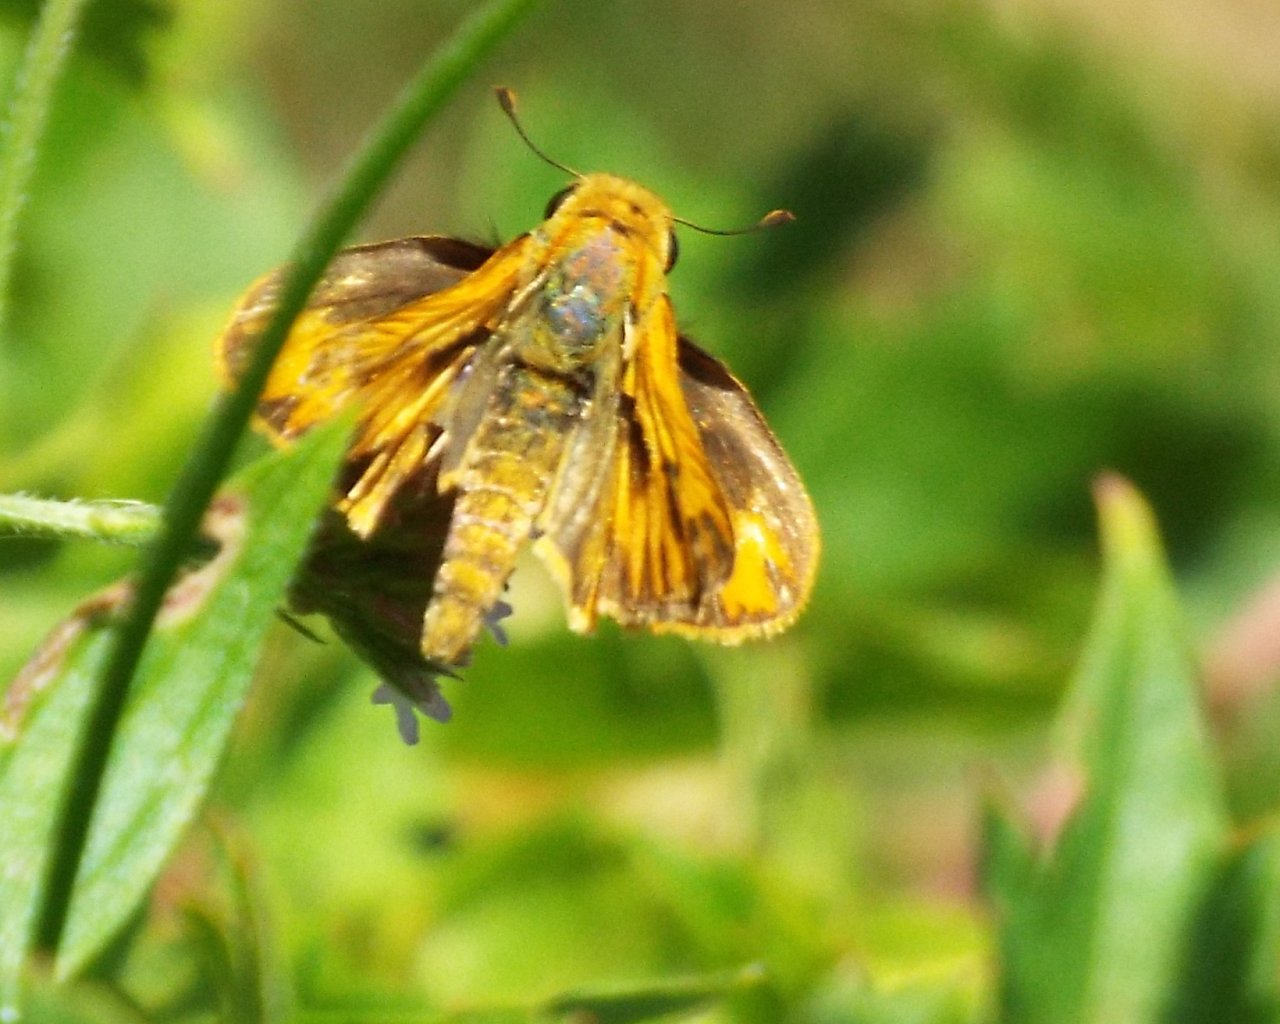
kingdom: Animalia
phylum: Arthropoda
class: Insecta
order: Lepidoptera
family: Hesperiidae
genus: Hylephila
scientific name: Hylephila phyleus
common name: Fiery Skipper
